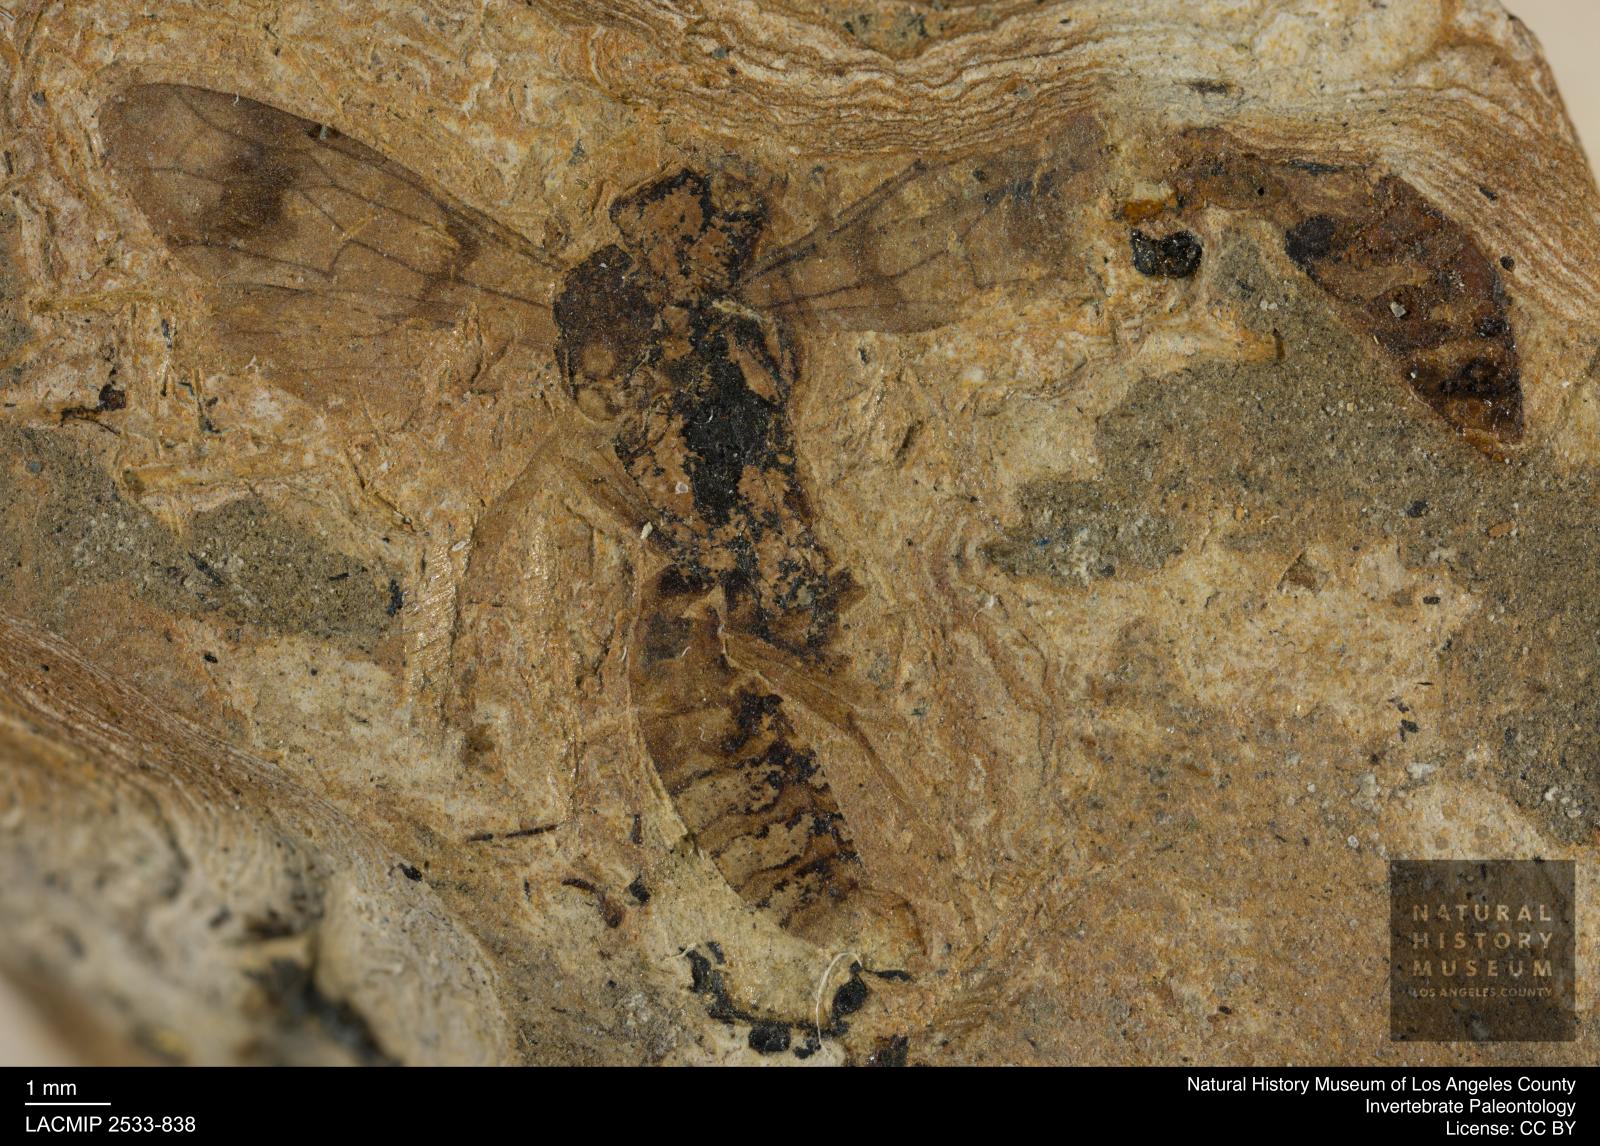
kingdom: Animalia
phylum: Arthropoda
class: Insecta
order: Hymenoptera
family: Pompilidae
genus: Priocnemis
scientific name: Priocnemis wettweri
